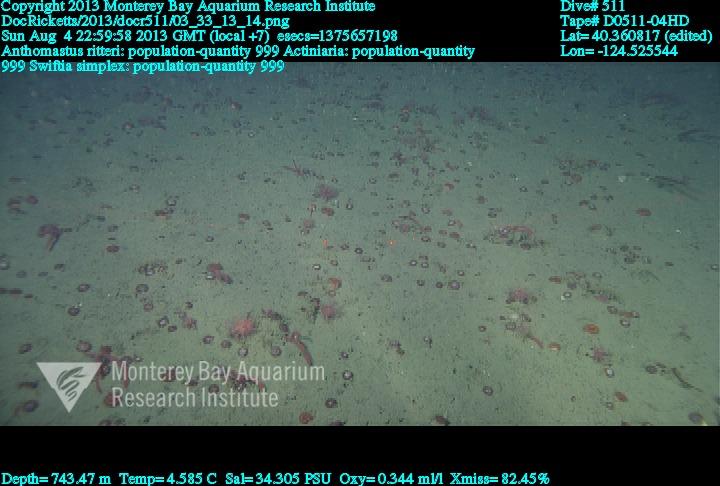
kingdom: Animalia
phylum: Cnidaria
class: Anthozoa
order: Scleralcyonacea
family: Coralliidae
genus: Heteropolypus
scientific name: Heteropolypus ritteri
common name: Ritter's soft coral
